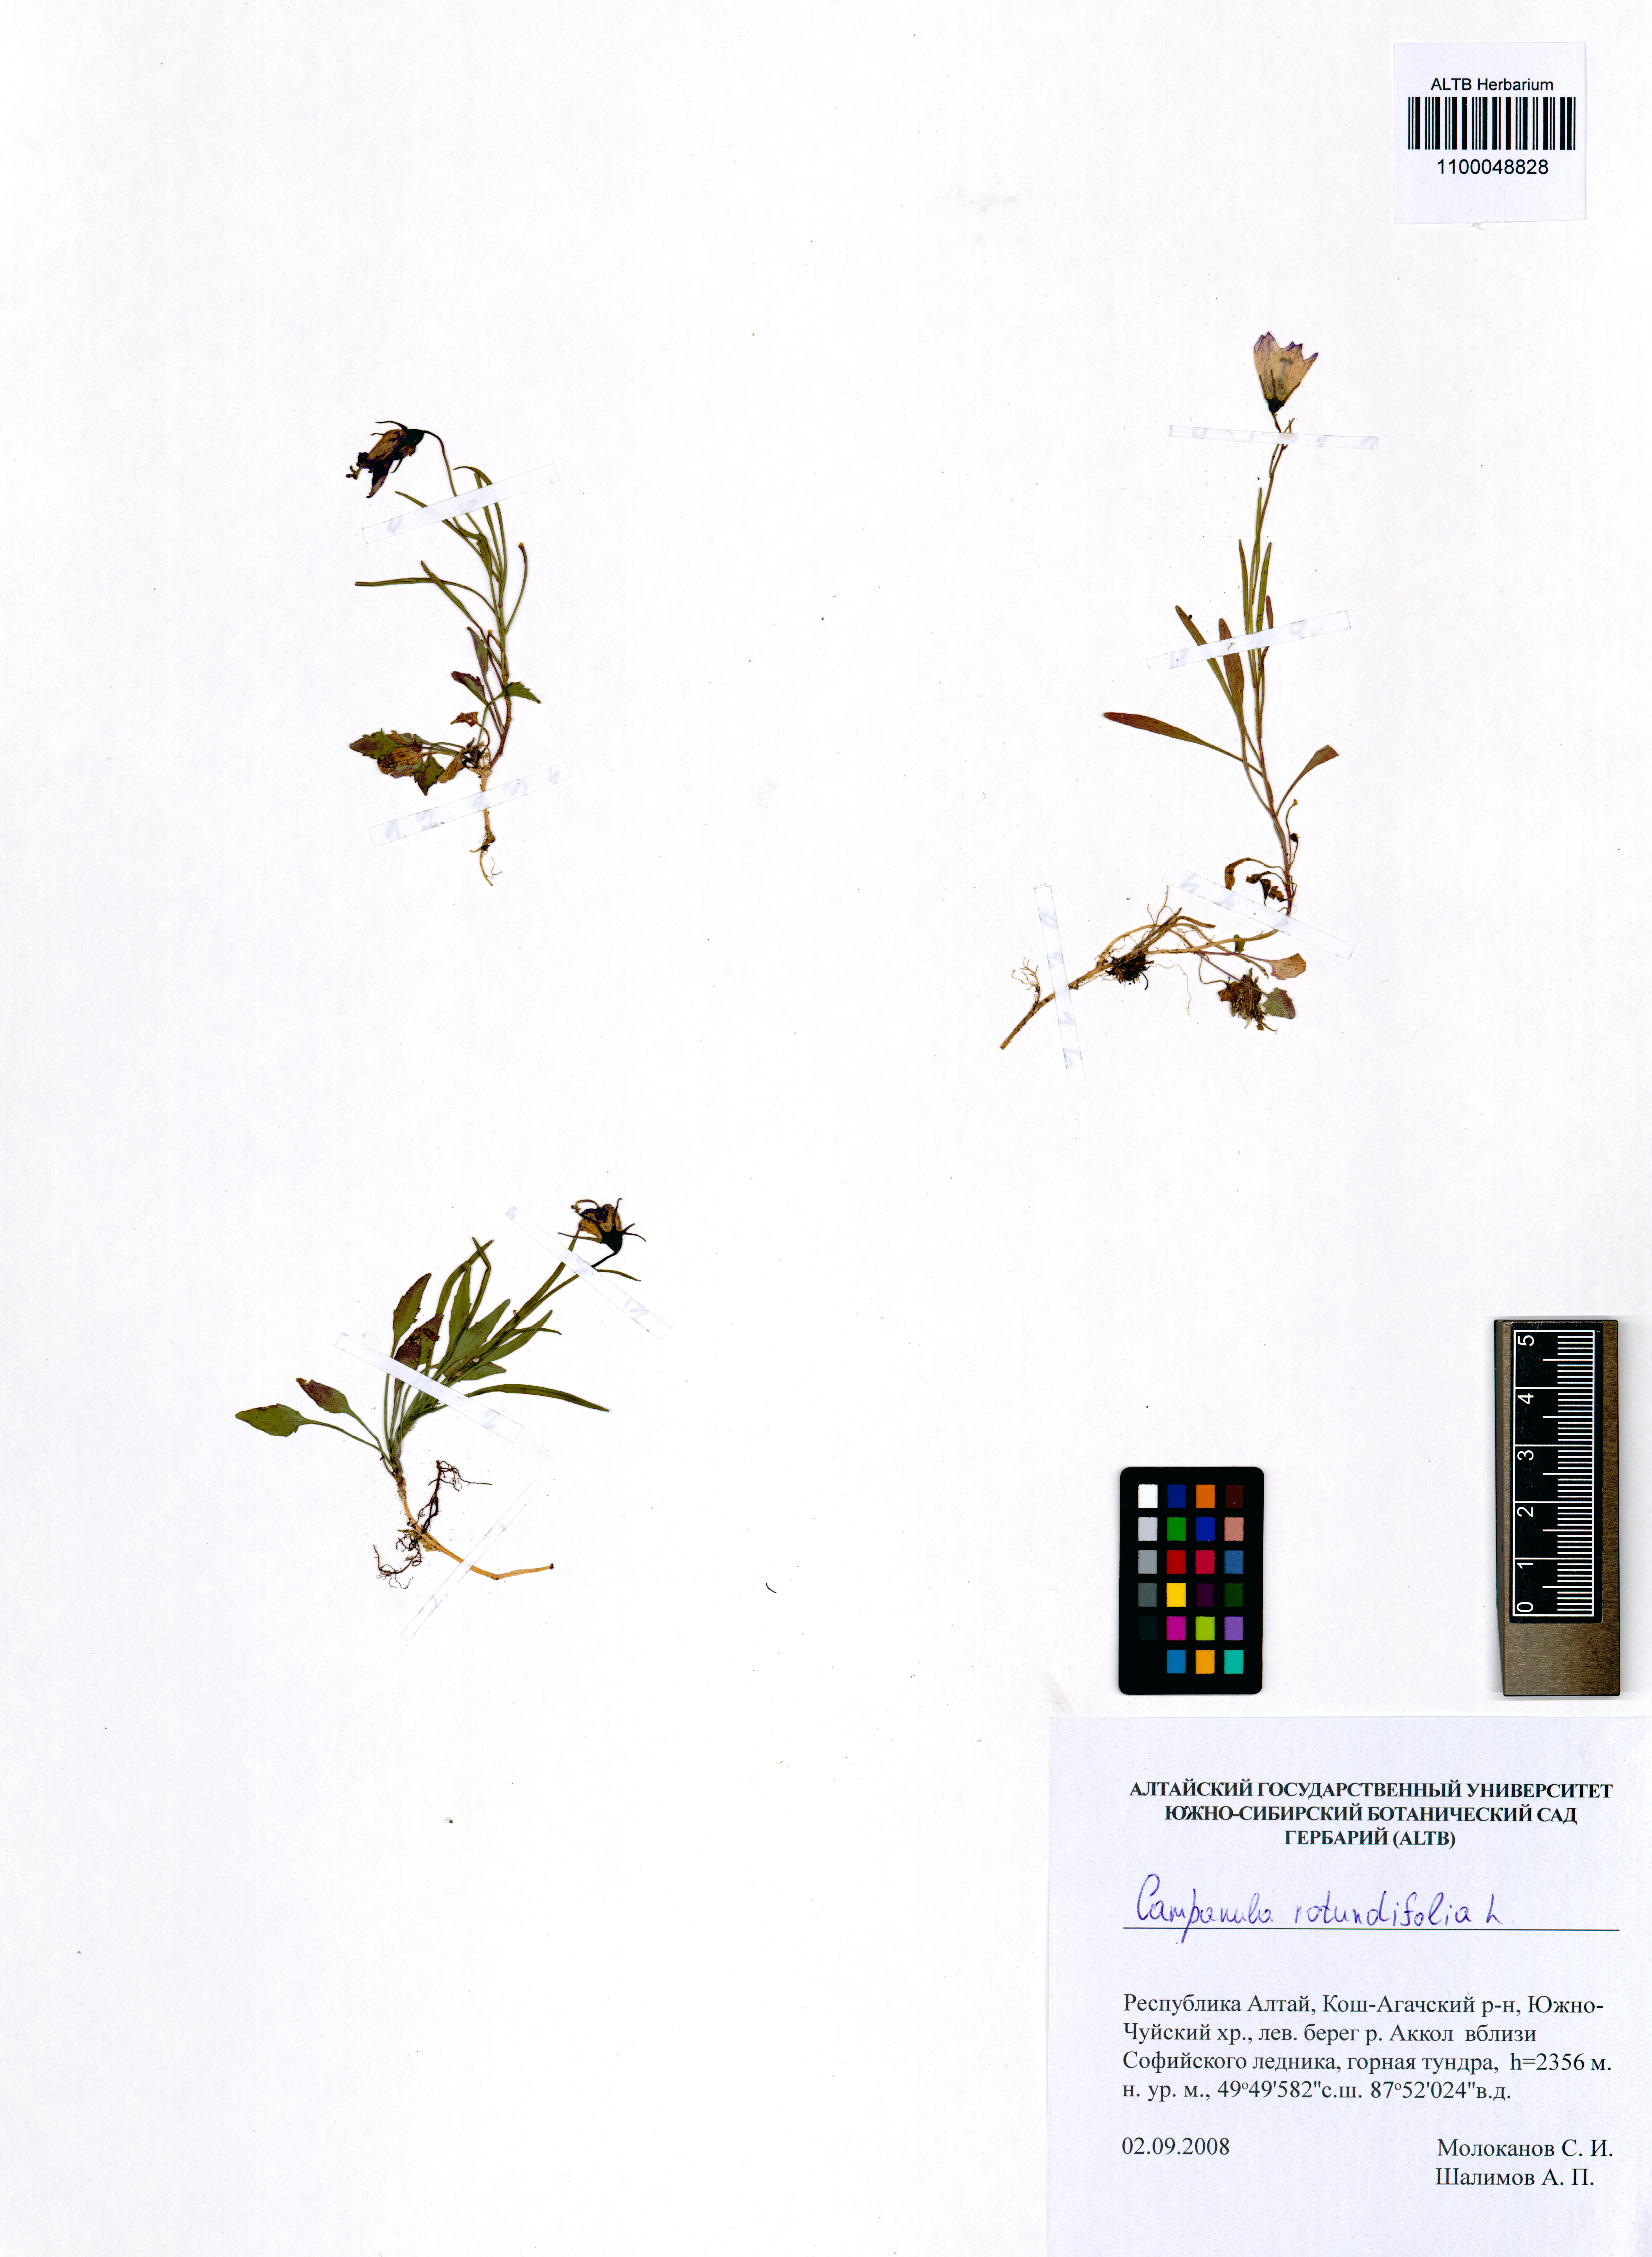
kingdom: Plantae
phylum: Tracheophyta
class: Magnoliopsida
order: Asterales
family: Campanulaceae
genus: Campanula
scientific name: Campanula rotundifolia
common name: Harebell
